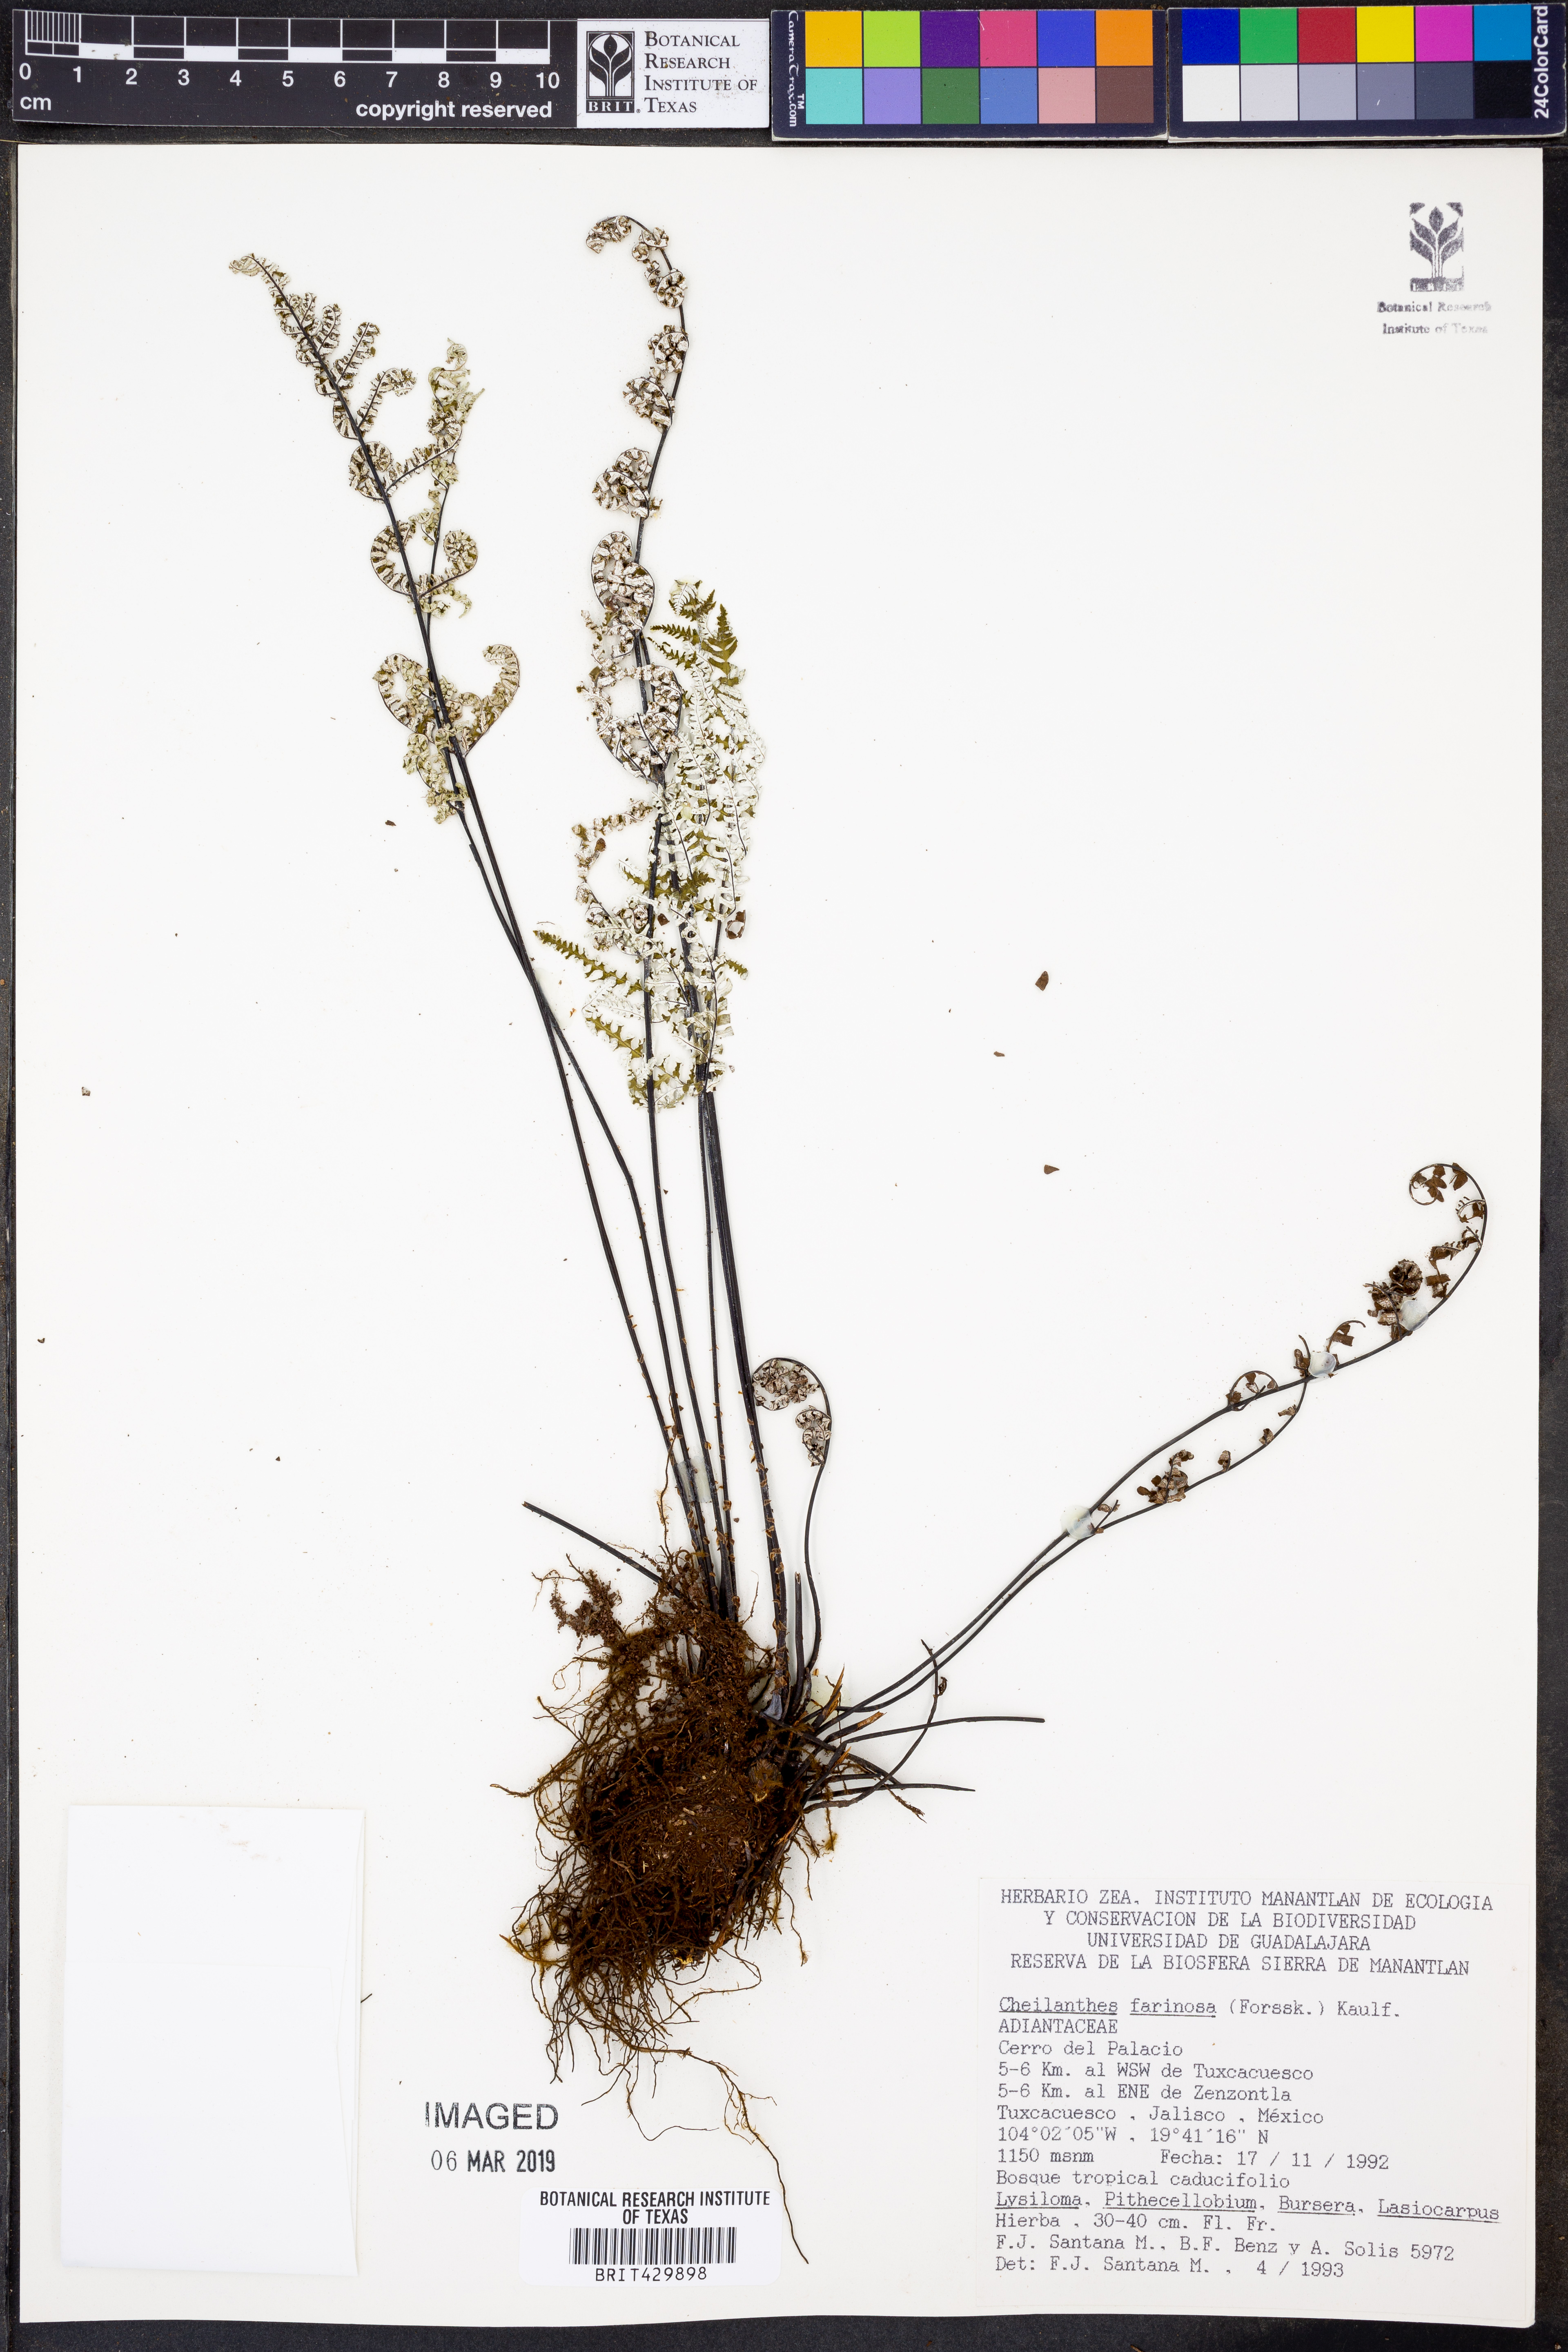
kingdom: Plantae
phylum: Tracheophyta
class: Polypodiopsida
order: Polypodiales
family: Pteridaceae
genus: Aleuritopteris
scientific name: Aleuritopteris farinosa
